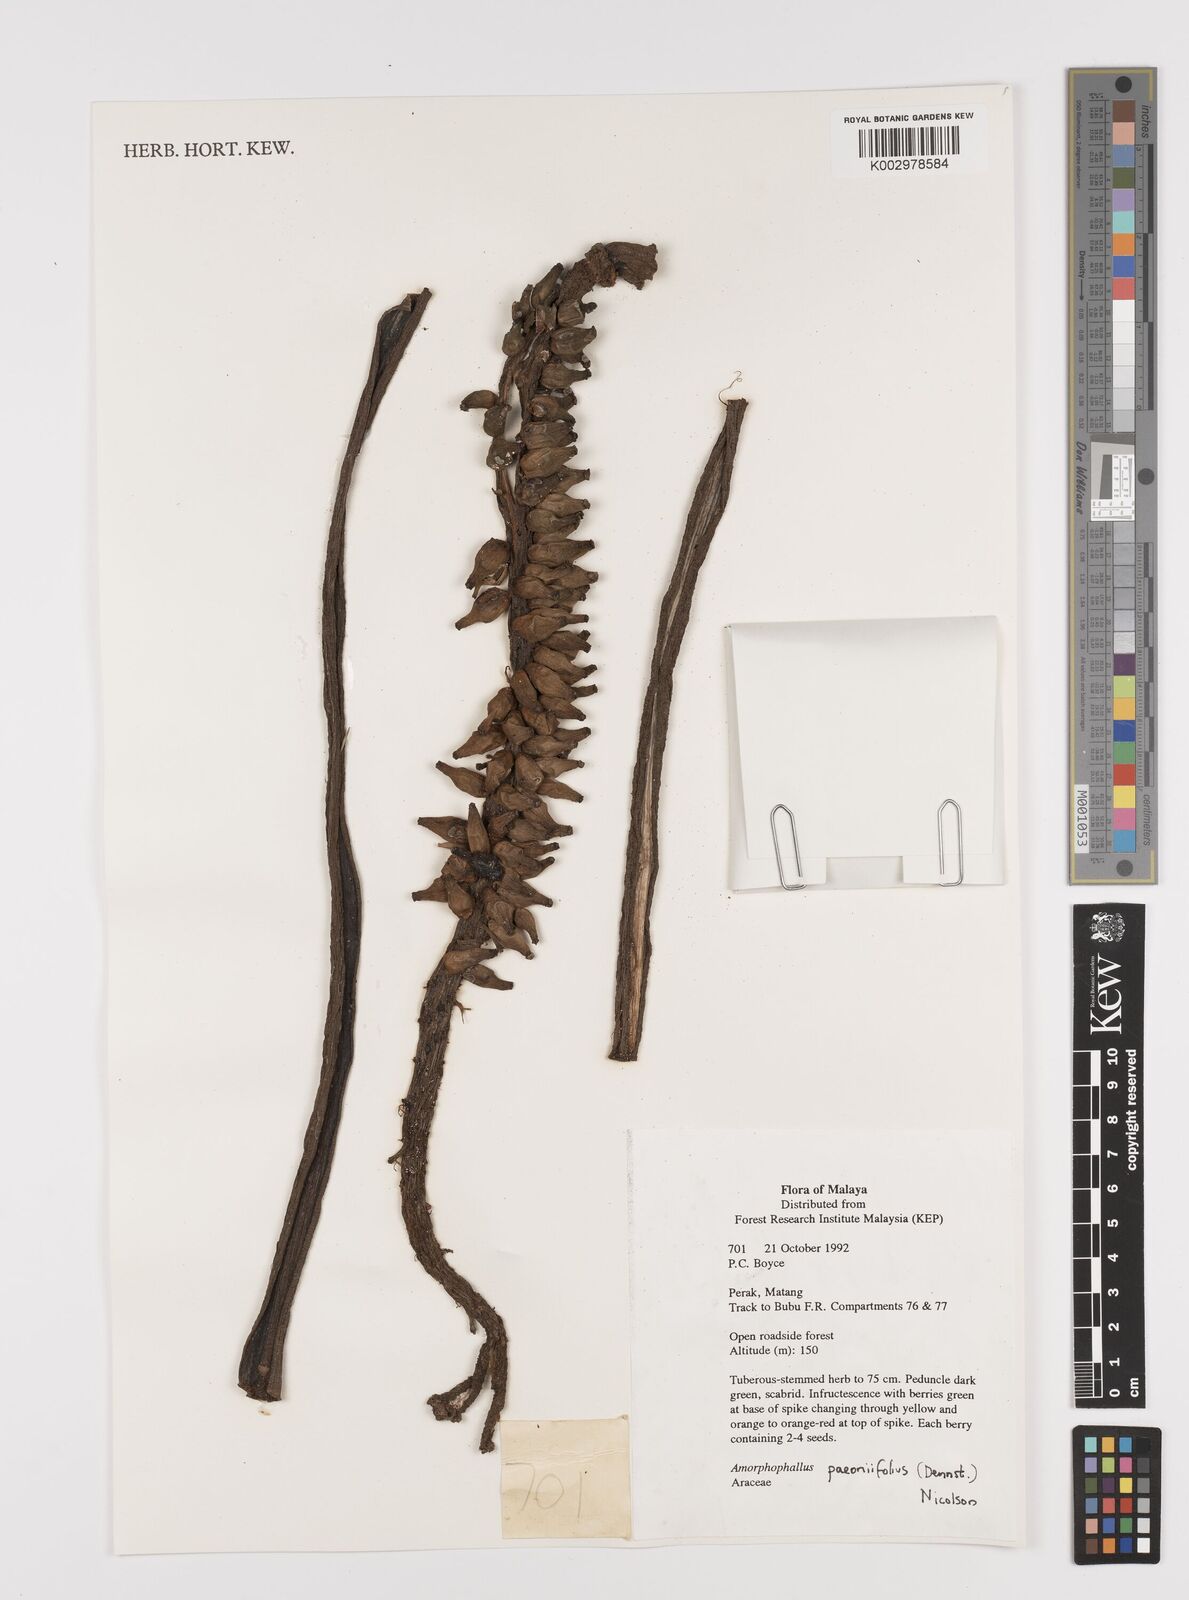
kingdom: Plantae
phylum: Tracheophyta
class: Liliopsida
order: Alismatales
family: Araceae
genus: Amorphophallus
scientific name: Amorphophallus paeoniifolius
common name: Telinga-potato
